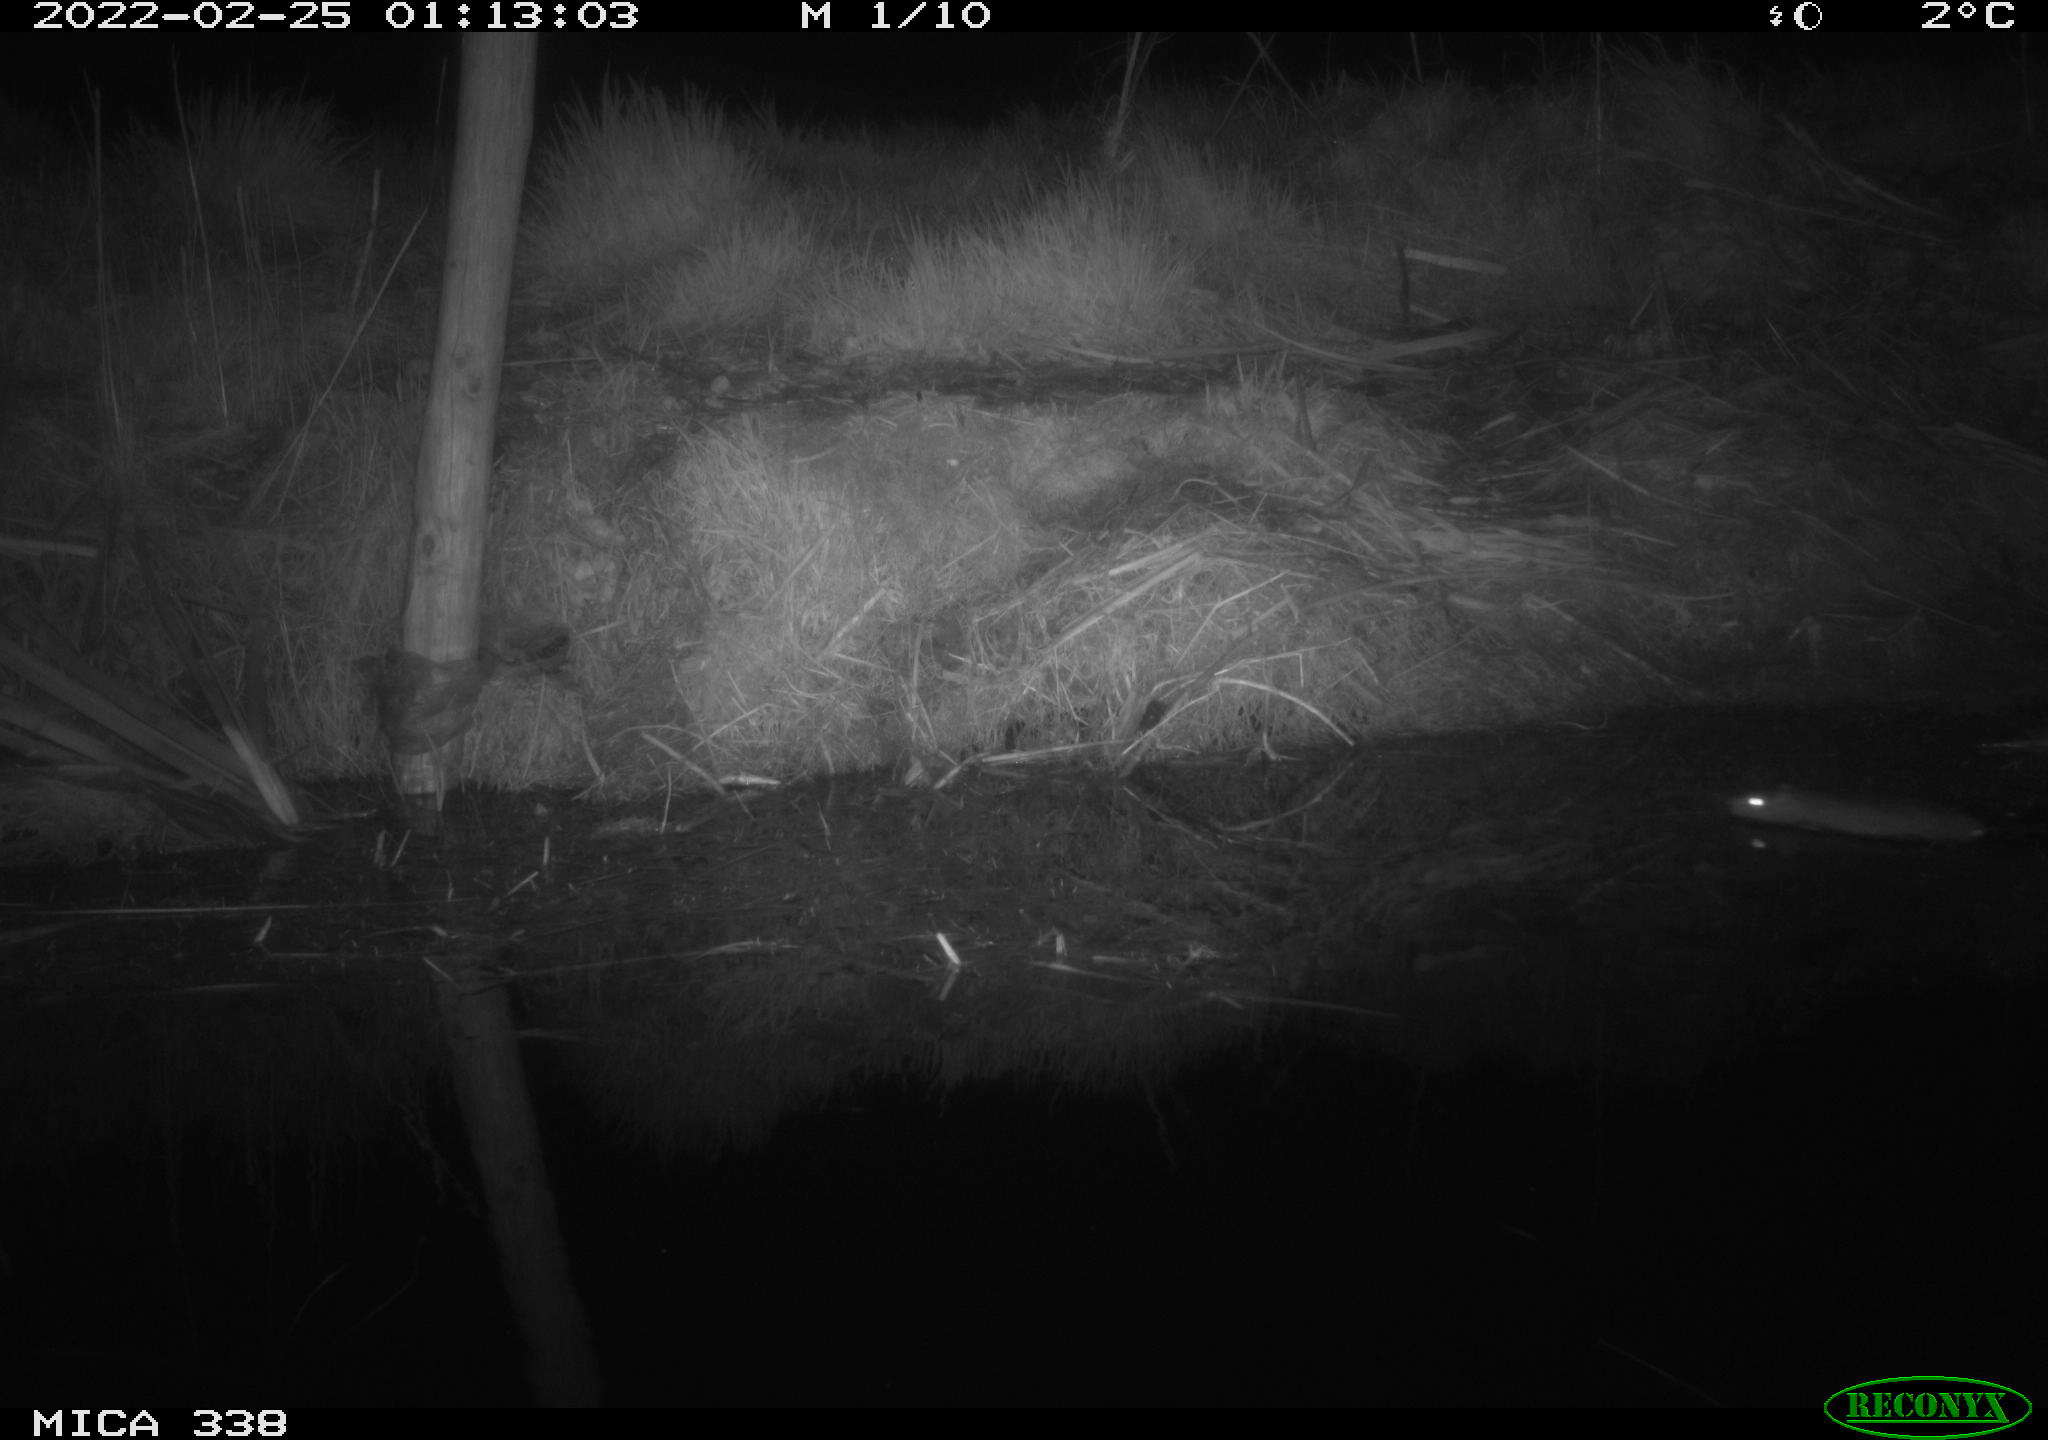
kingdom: Animalia
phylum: Chordata
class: Mammalia
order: Rodentia
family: Muridae
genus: Rattus
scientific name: Rattus norvegicus
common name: Brown rat
